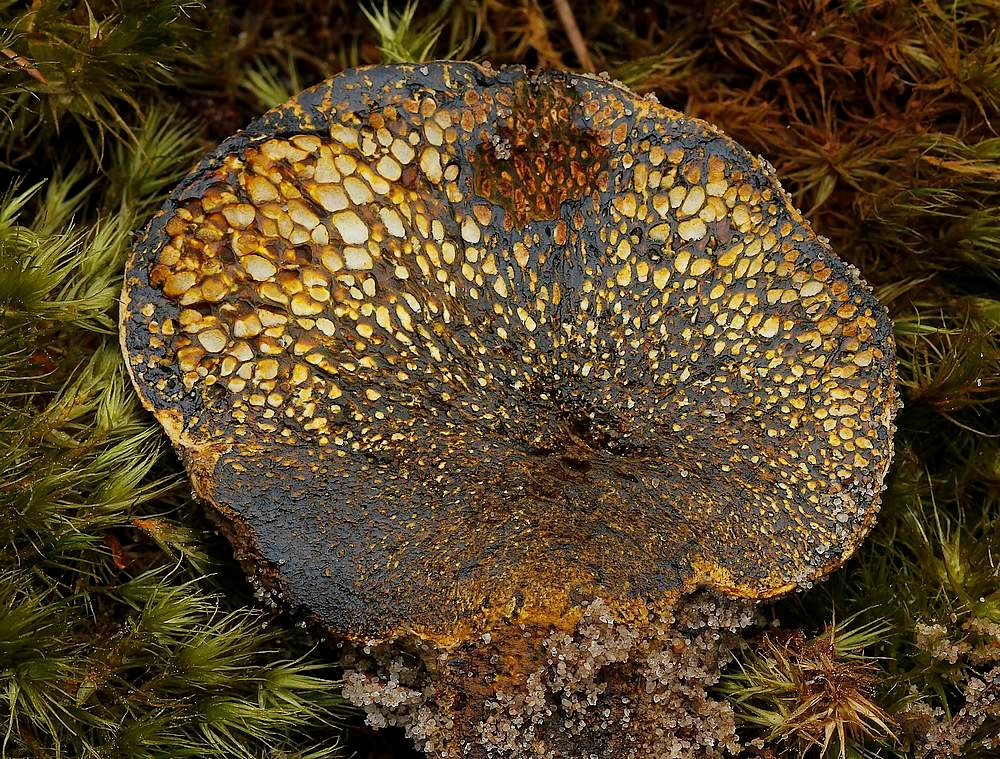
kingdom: Fungi
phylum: Basidiomycota
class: Agaricomycetes
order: Boletales
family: Sclerodermataceae
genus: Pisolithus
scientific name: Pisolithus capsulifer
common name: farvebold
